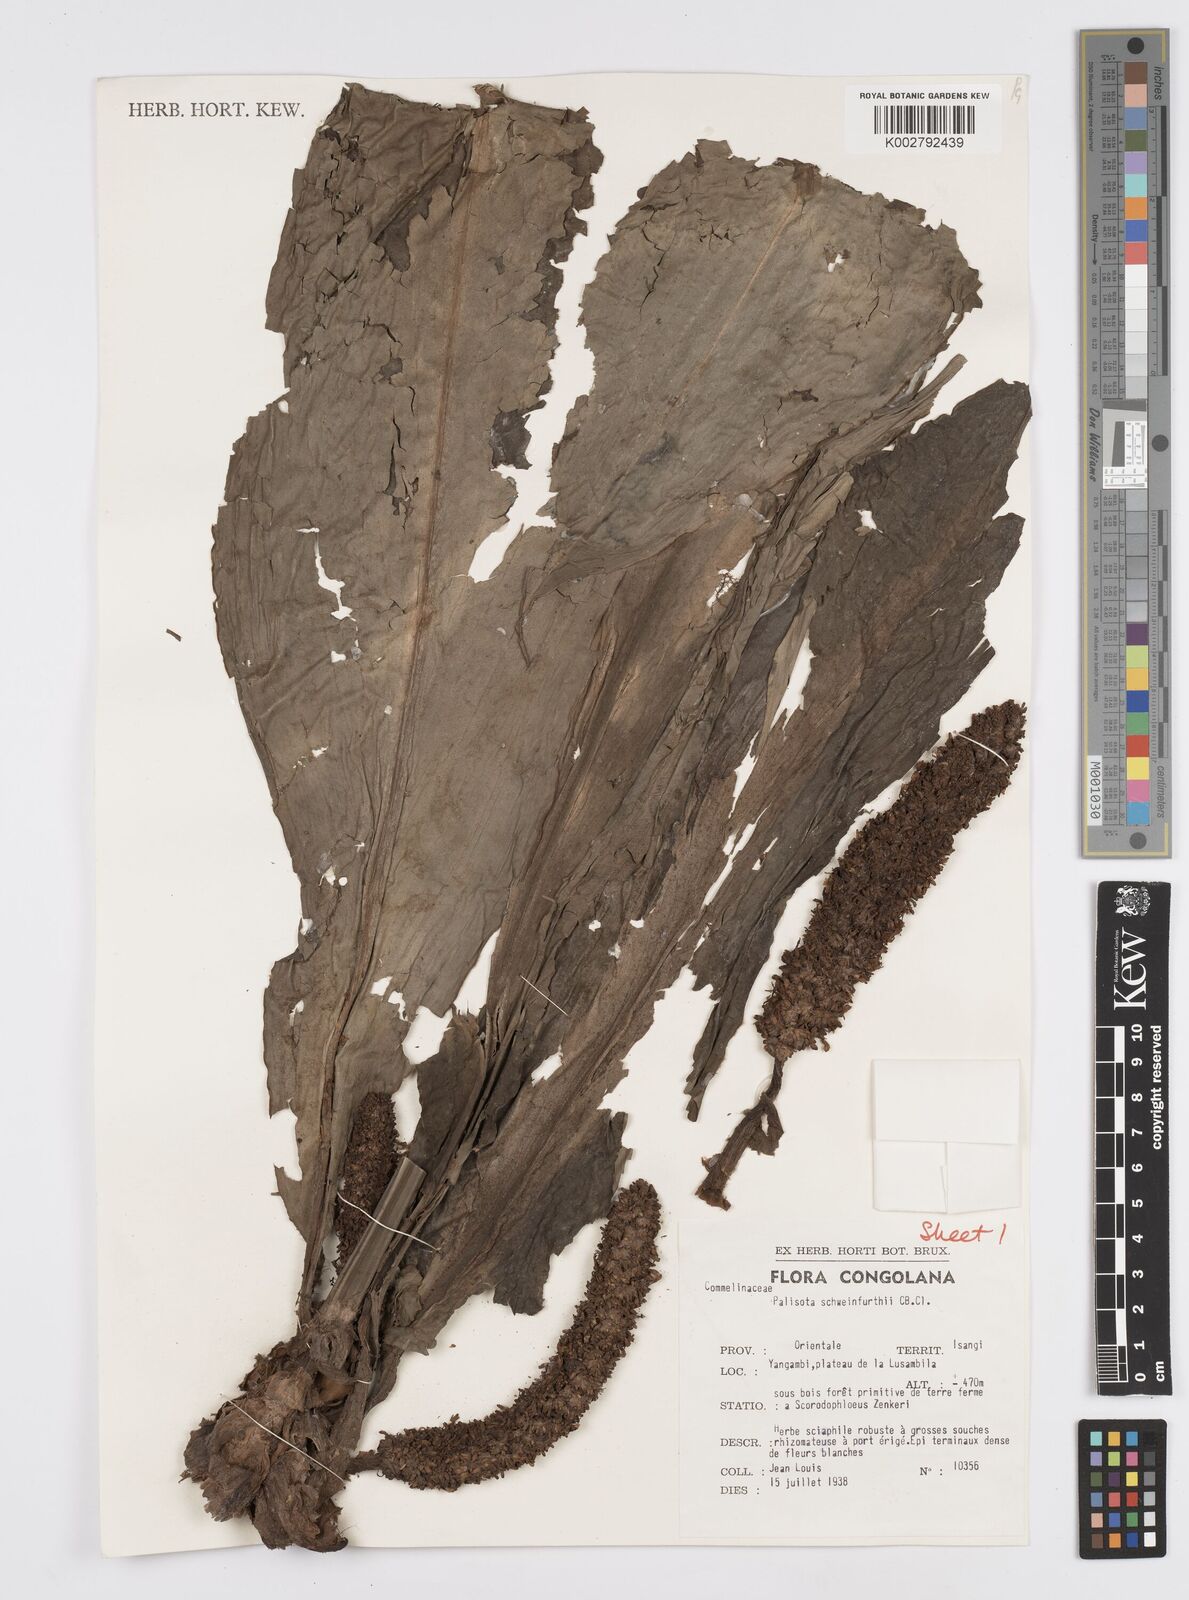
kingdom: Plantae
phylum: Tracheophyta
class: Liliopsida
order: Commelinales
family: Commelinaceae
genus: Palisota
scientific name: Palisota schweinfurthii
